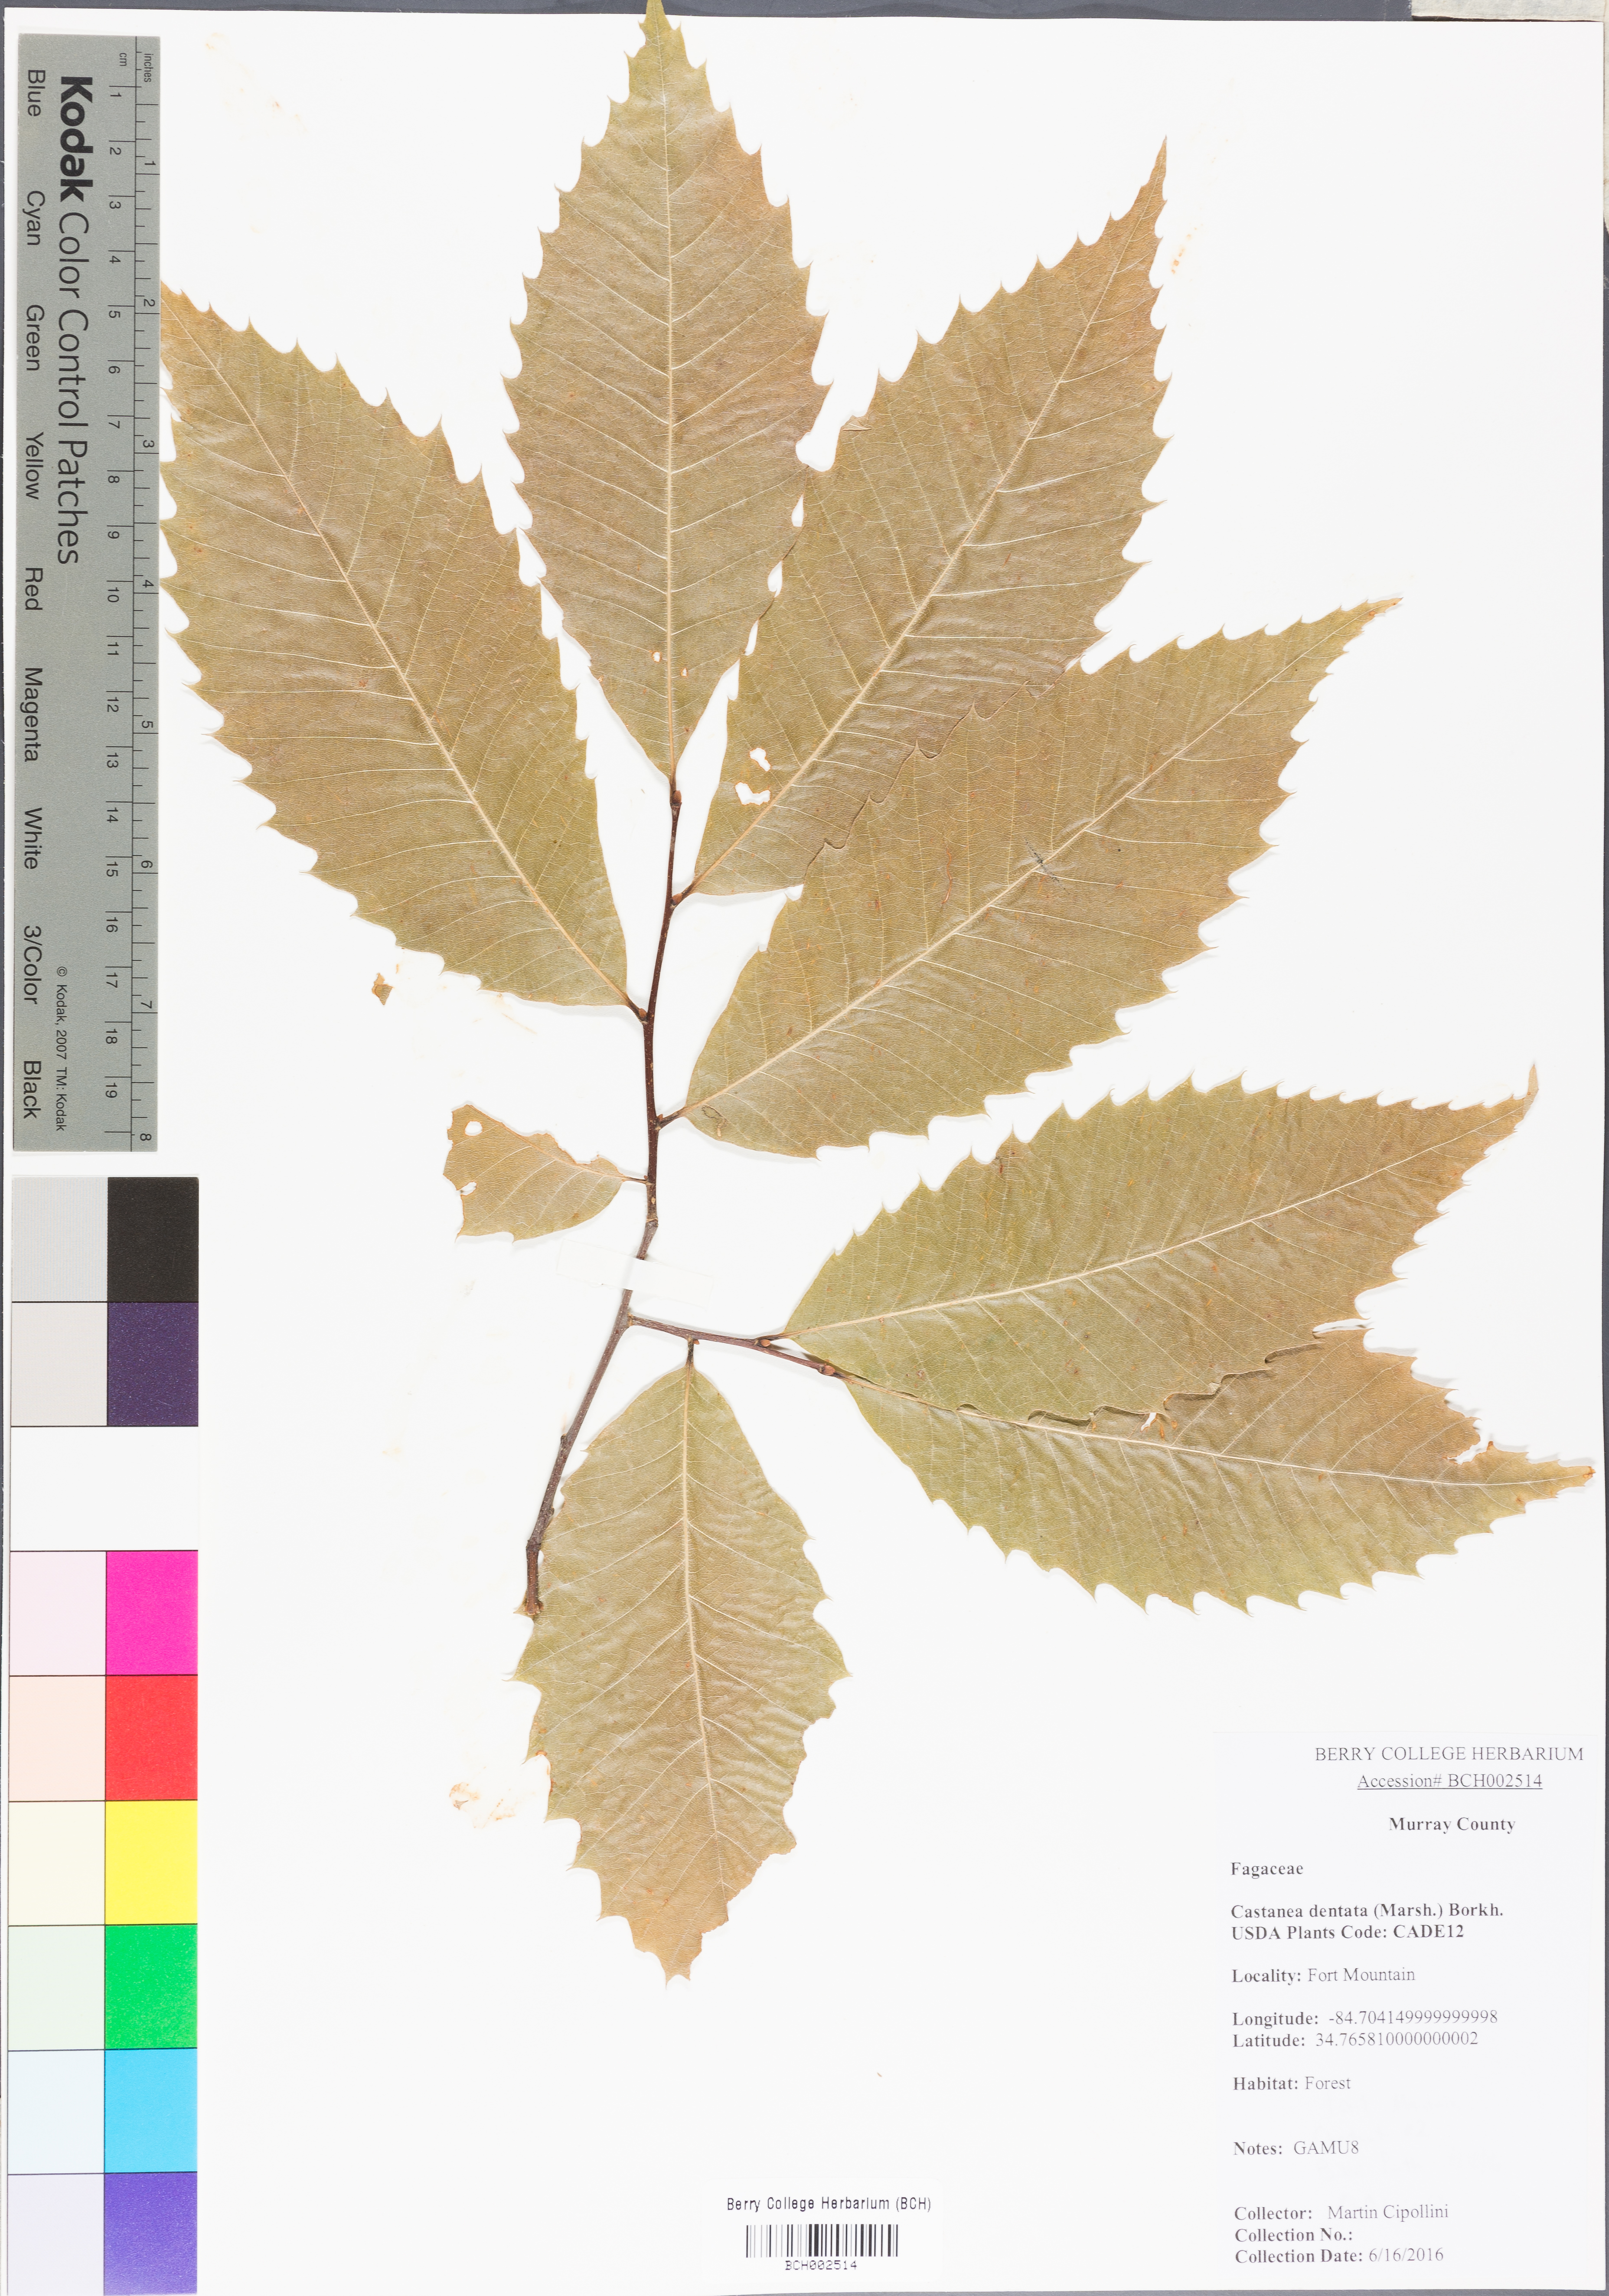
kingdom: Plantae
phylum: Tracheophyta
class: Magnoliopsida
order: Fagales
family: Fagaceae
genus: Castanea
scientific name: Castanea dentata
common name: American chestnut
